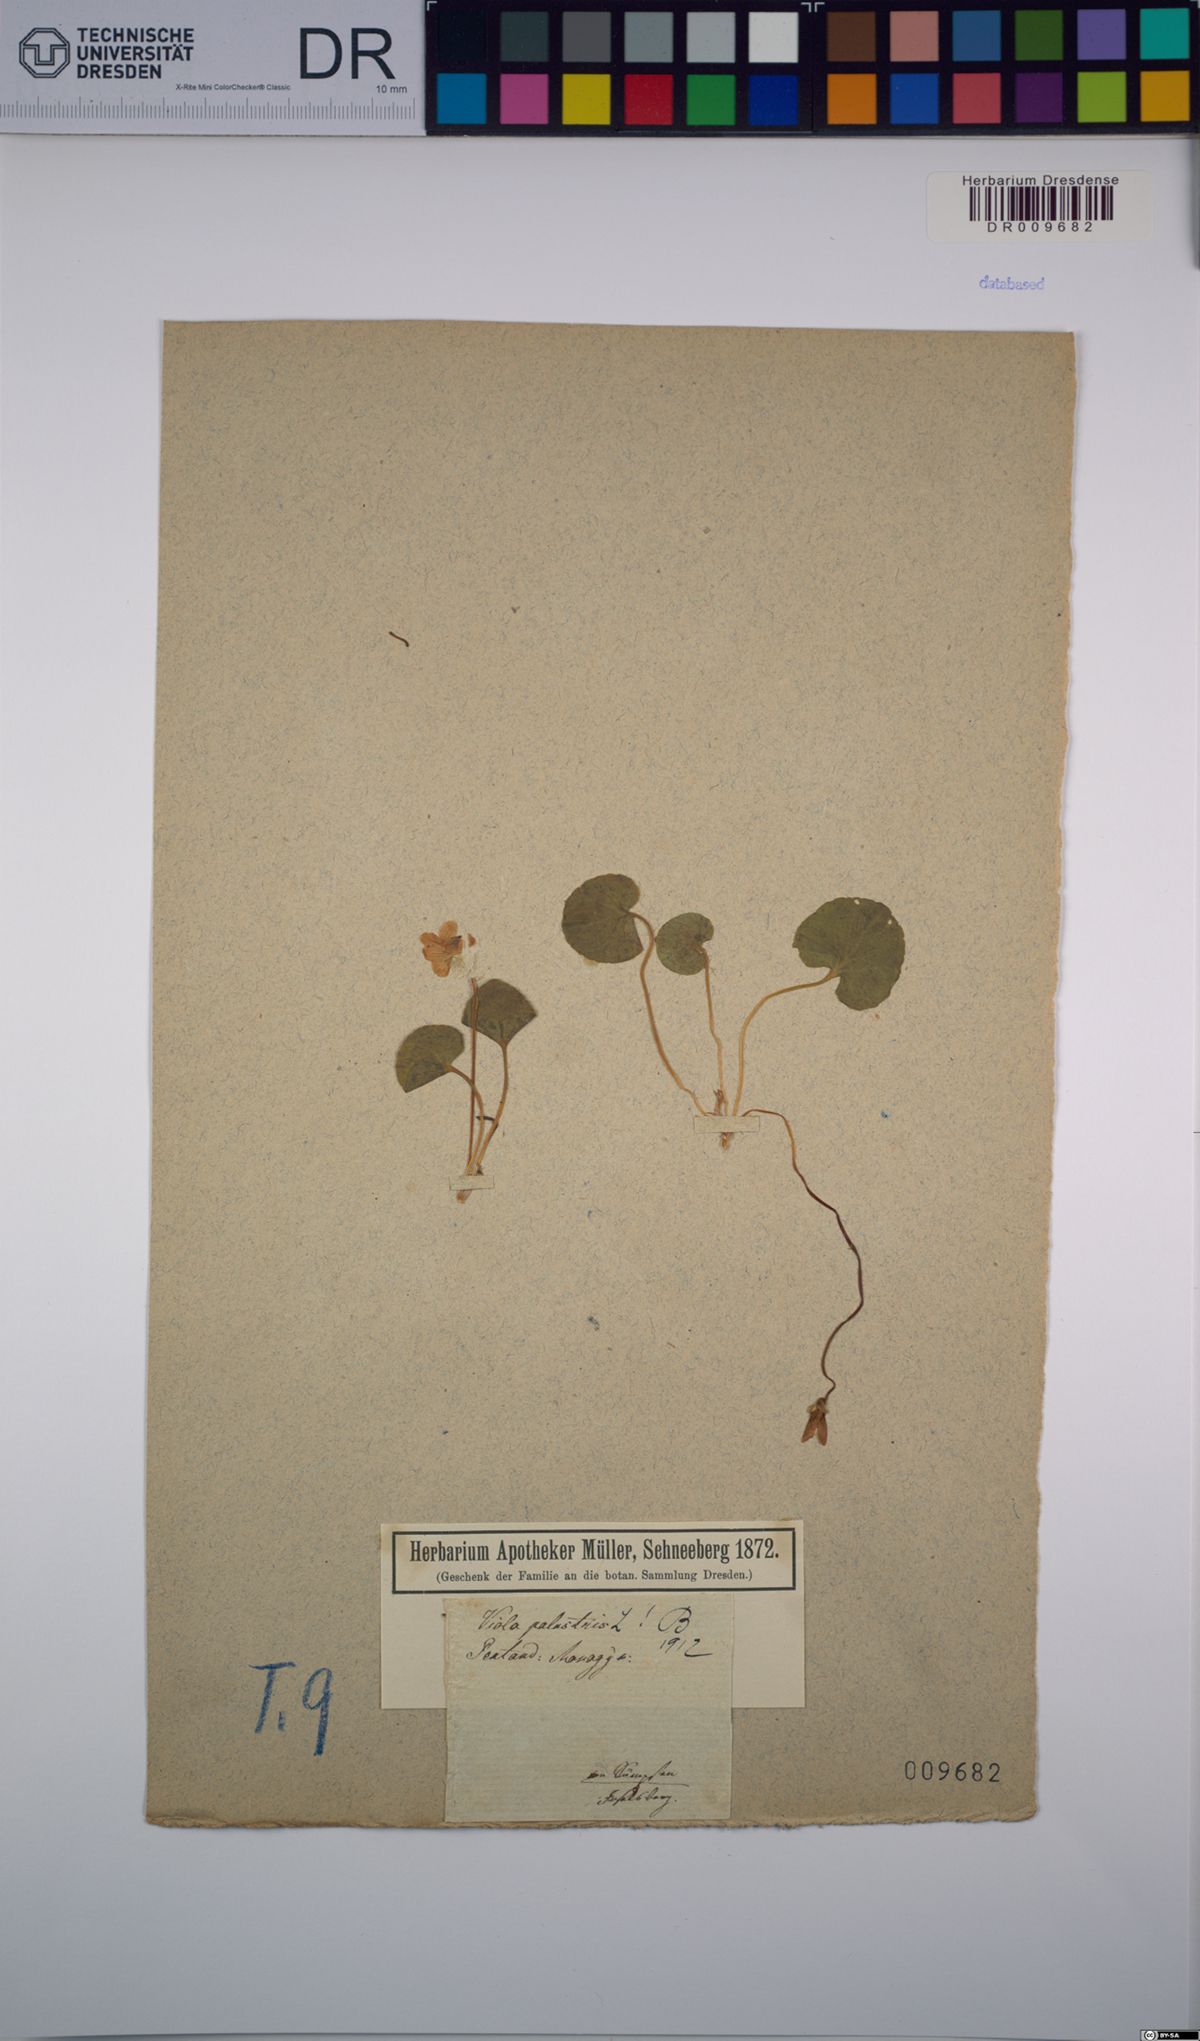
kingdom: Plantae
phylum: Tracheophyta
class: Magnoliopsida
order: Malpighiales
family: Violaceae
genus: Viola
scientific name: Viola palustris
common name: Marsh violet
